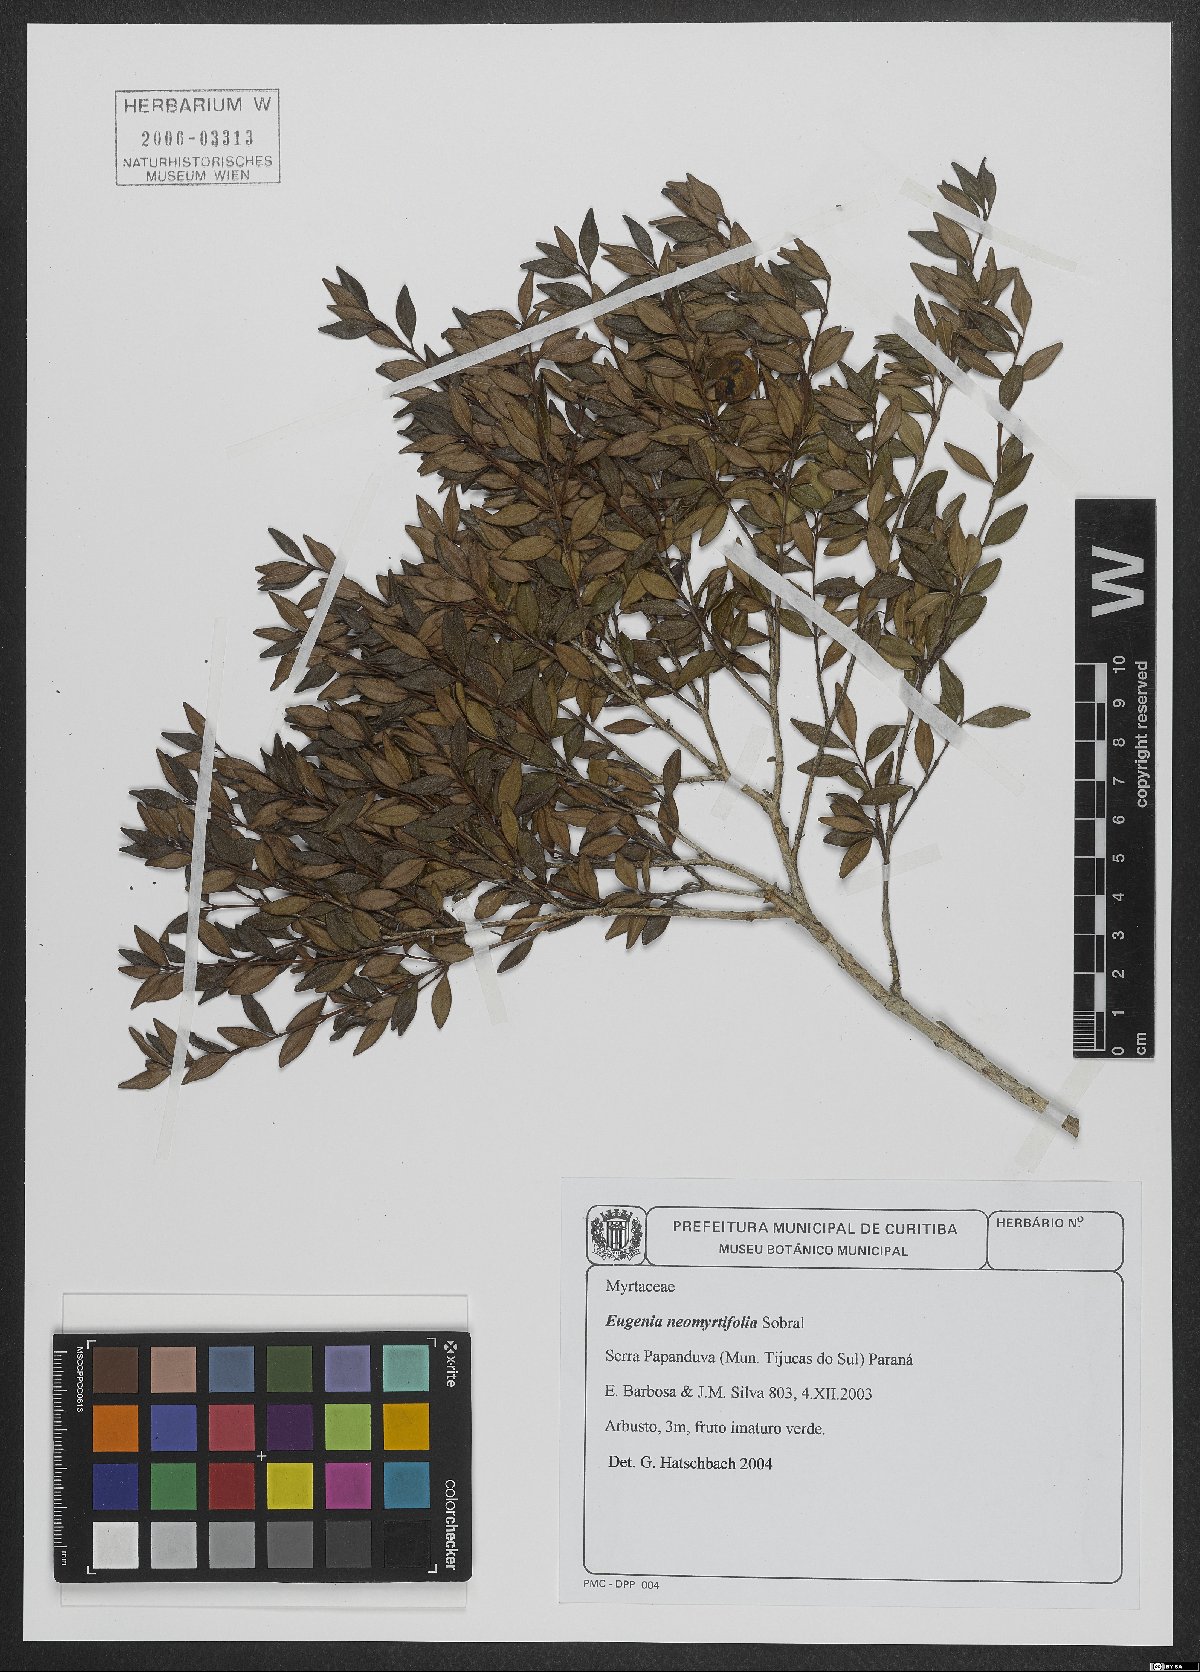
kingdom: Plantae
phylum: Tracheophyta
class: Magnoliopsida
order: Myrtales
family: Myrtaceae
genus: Eugenia
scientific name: Eugenia neomyrtifolia
